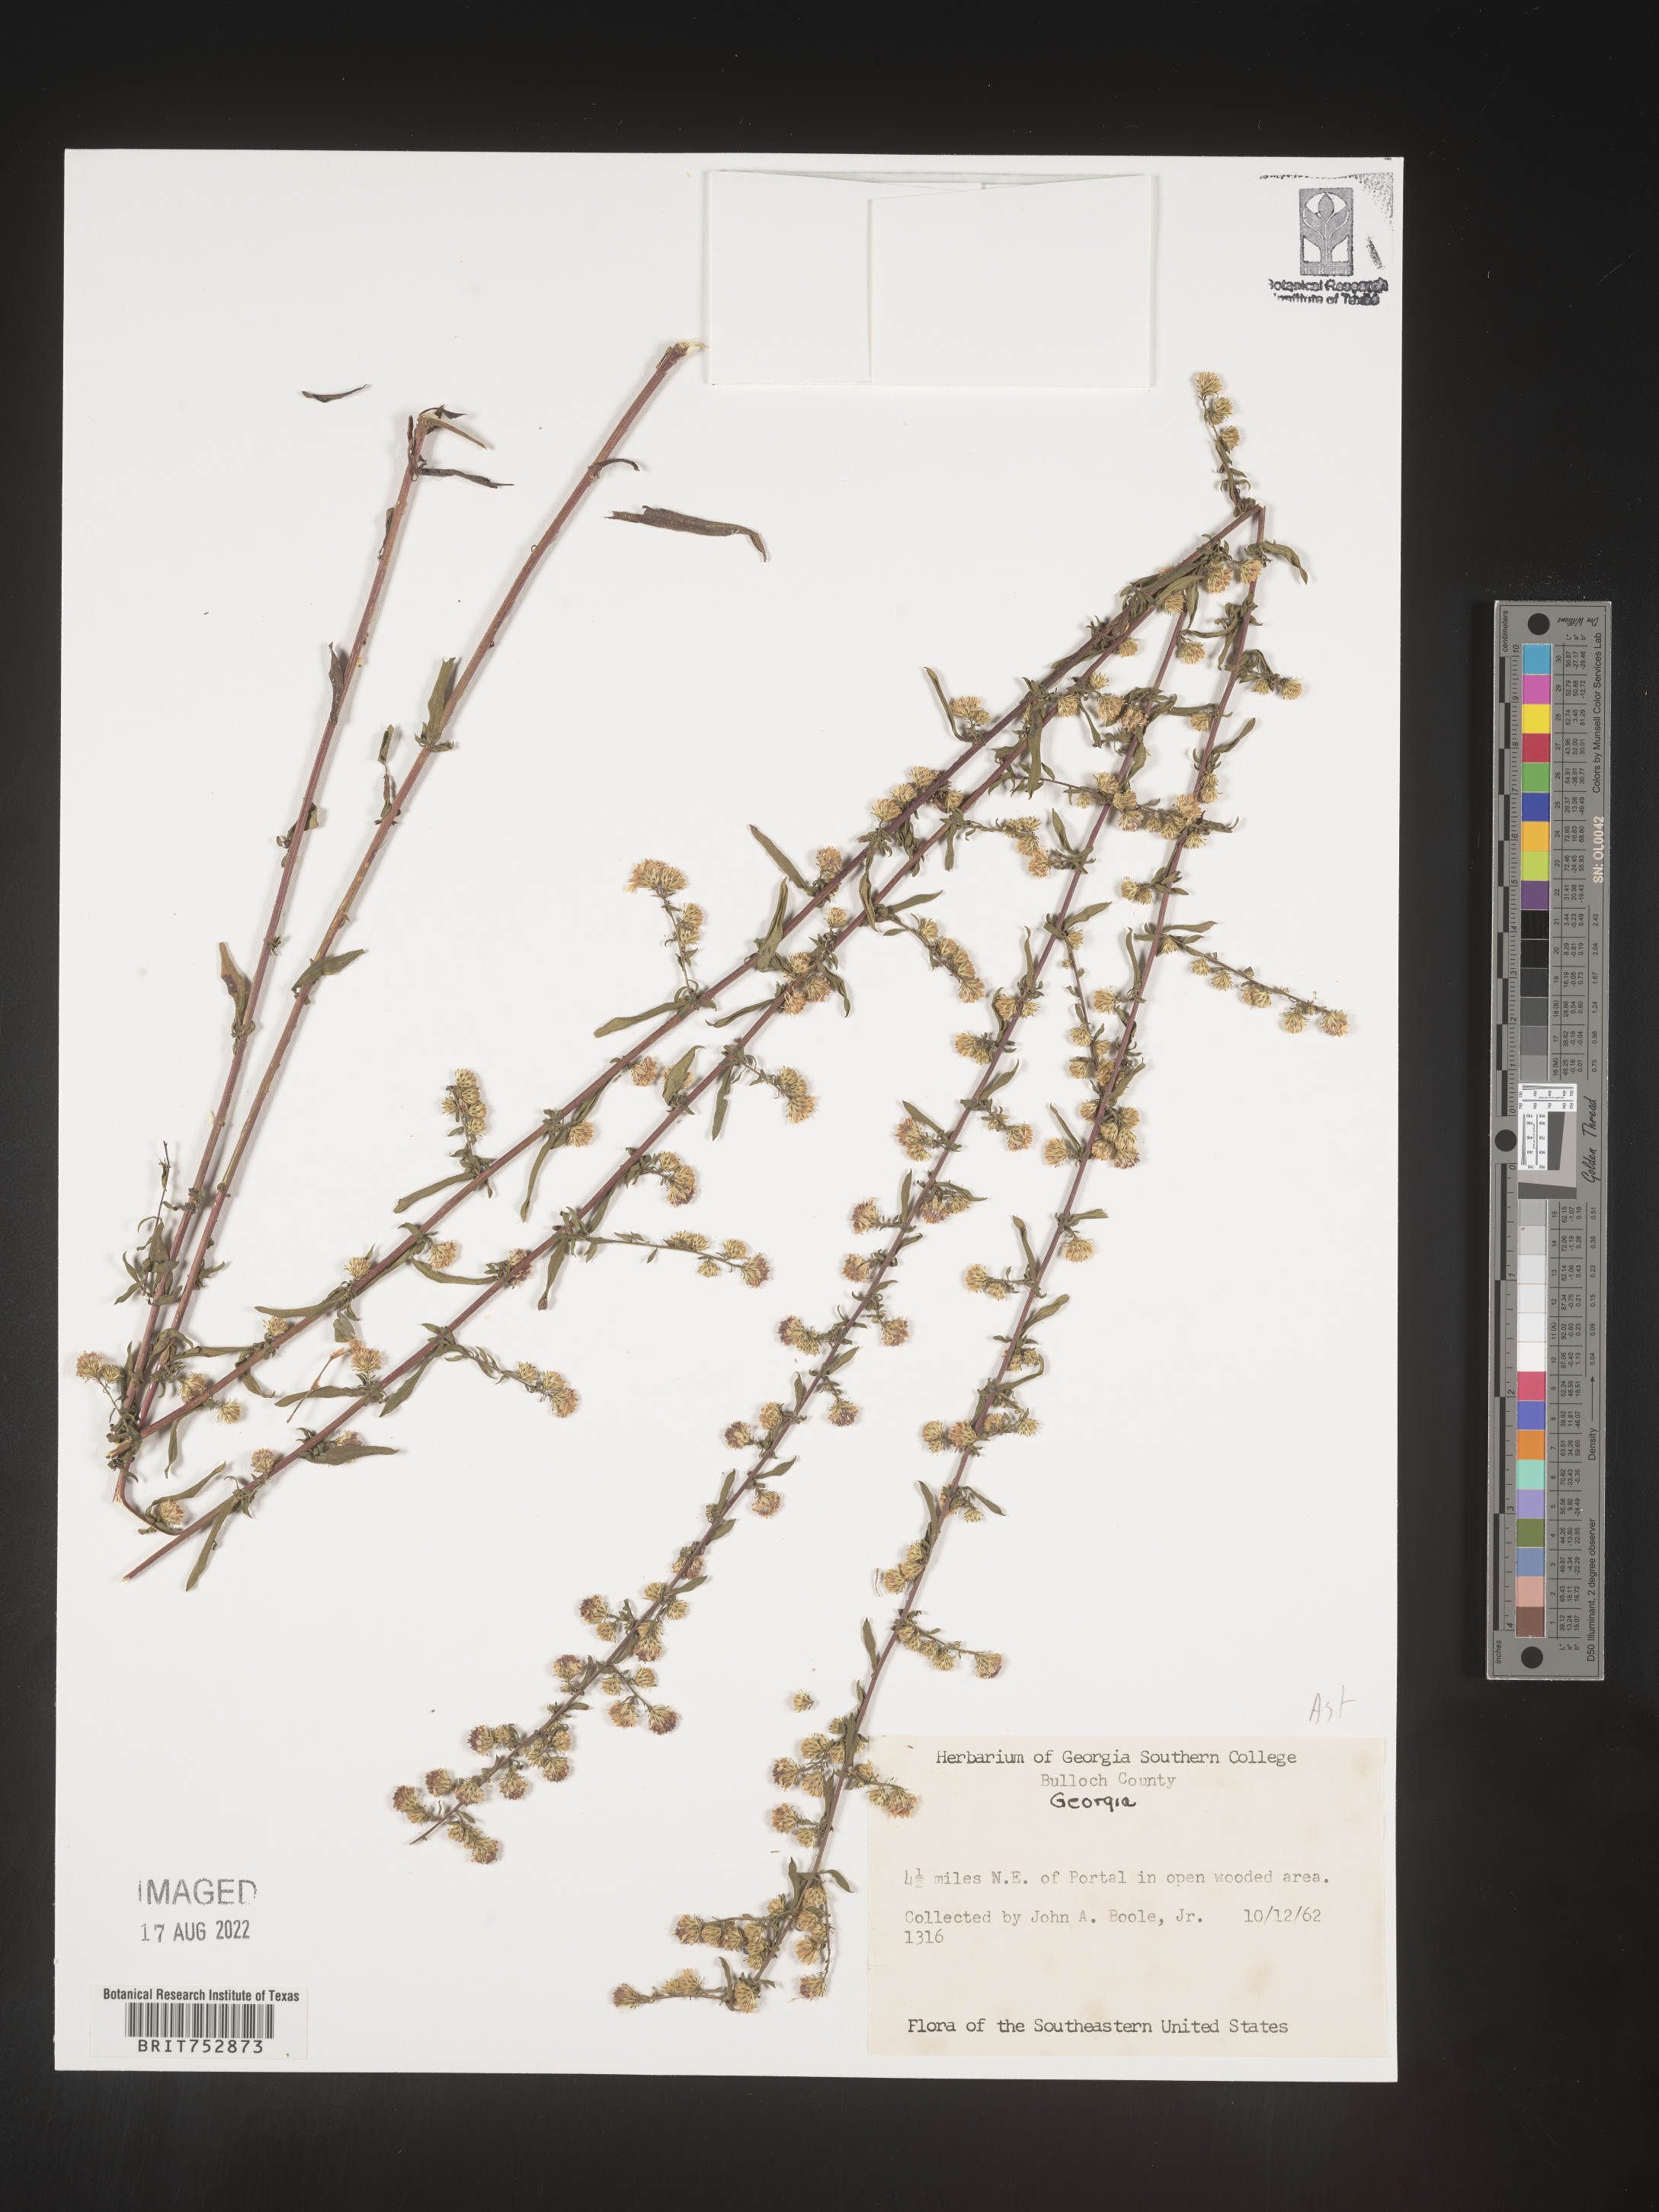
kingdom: Plantae
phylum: Tracheophyta
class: Magnoliopsida
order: Asterales
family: Asteraceae
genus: Symphyotrichum
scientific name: Symphyotrichum lateriflorum
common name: Calico aster
